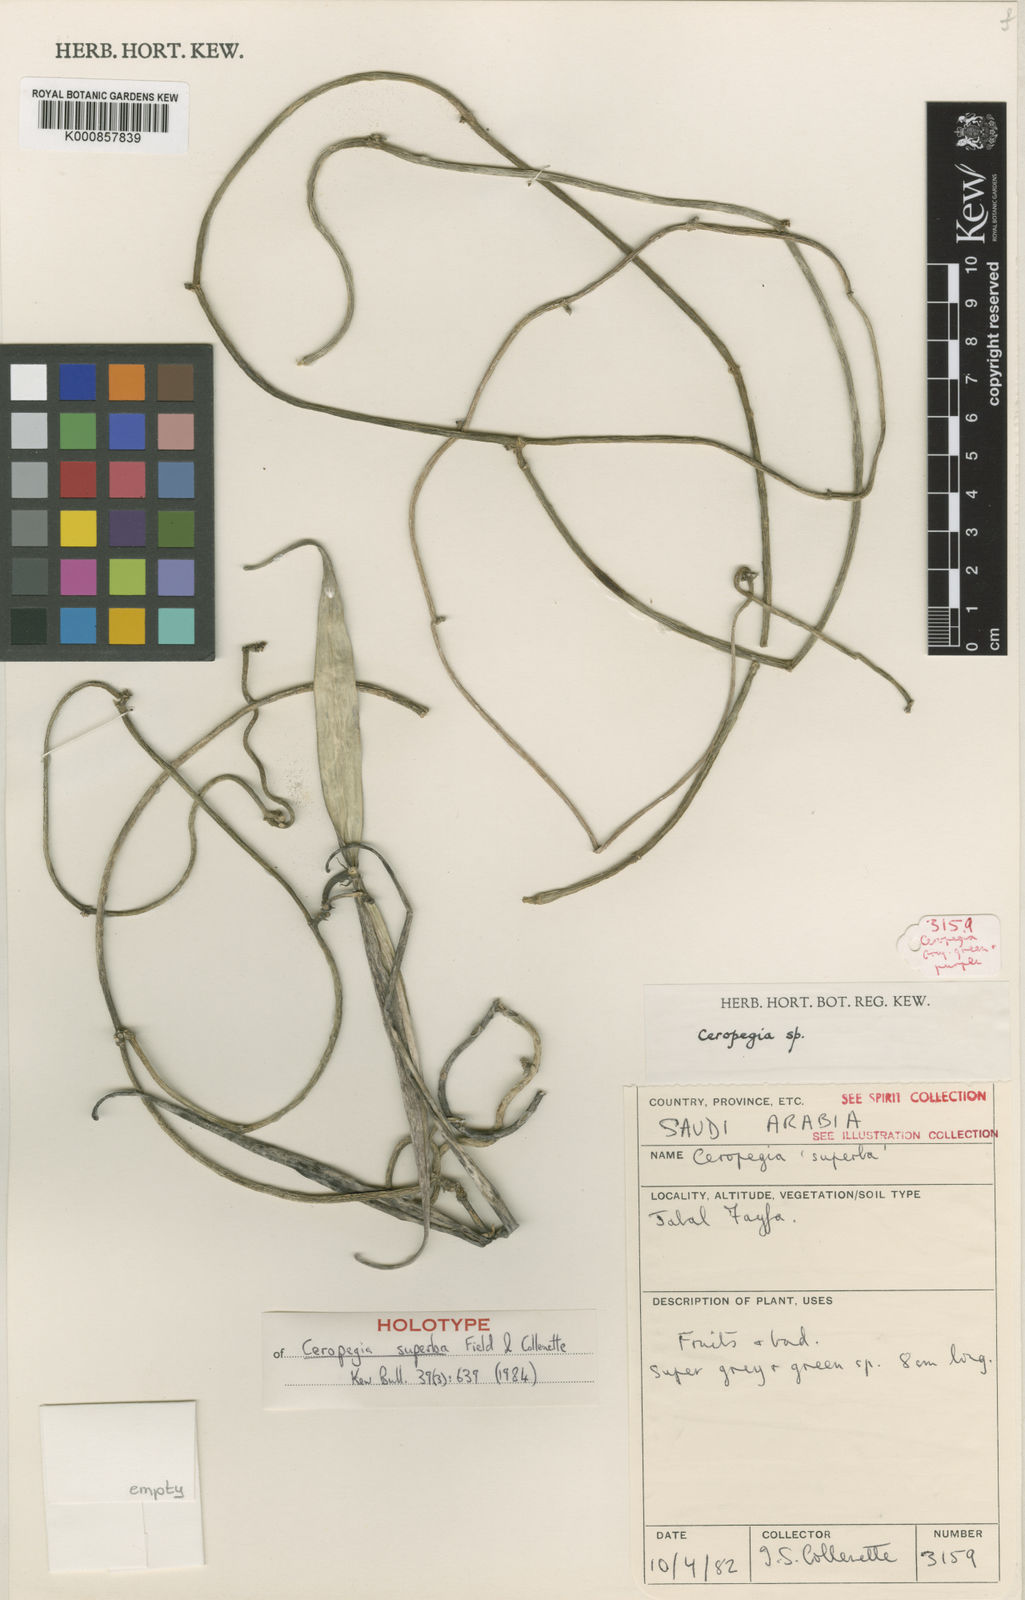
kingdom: Plantae
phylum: Tracheophyta
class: Magnoliopsida
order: Gentianales
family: Apocynaceae
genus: Ceropegia
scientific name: Ceropegia arabica
